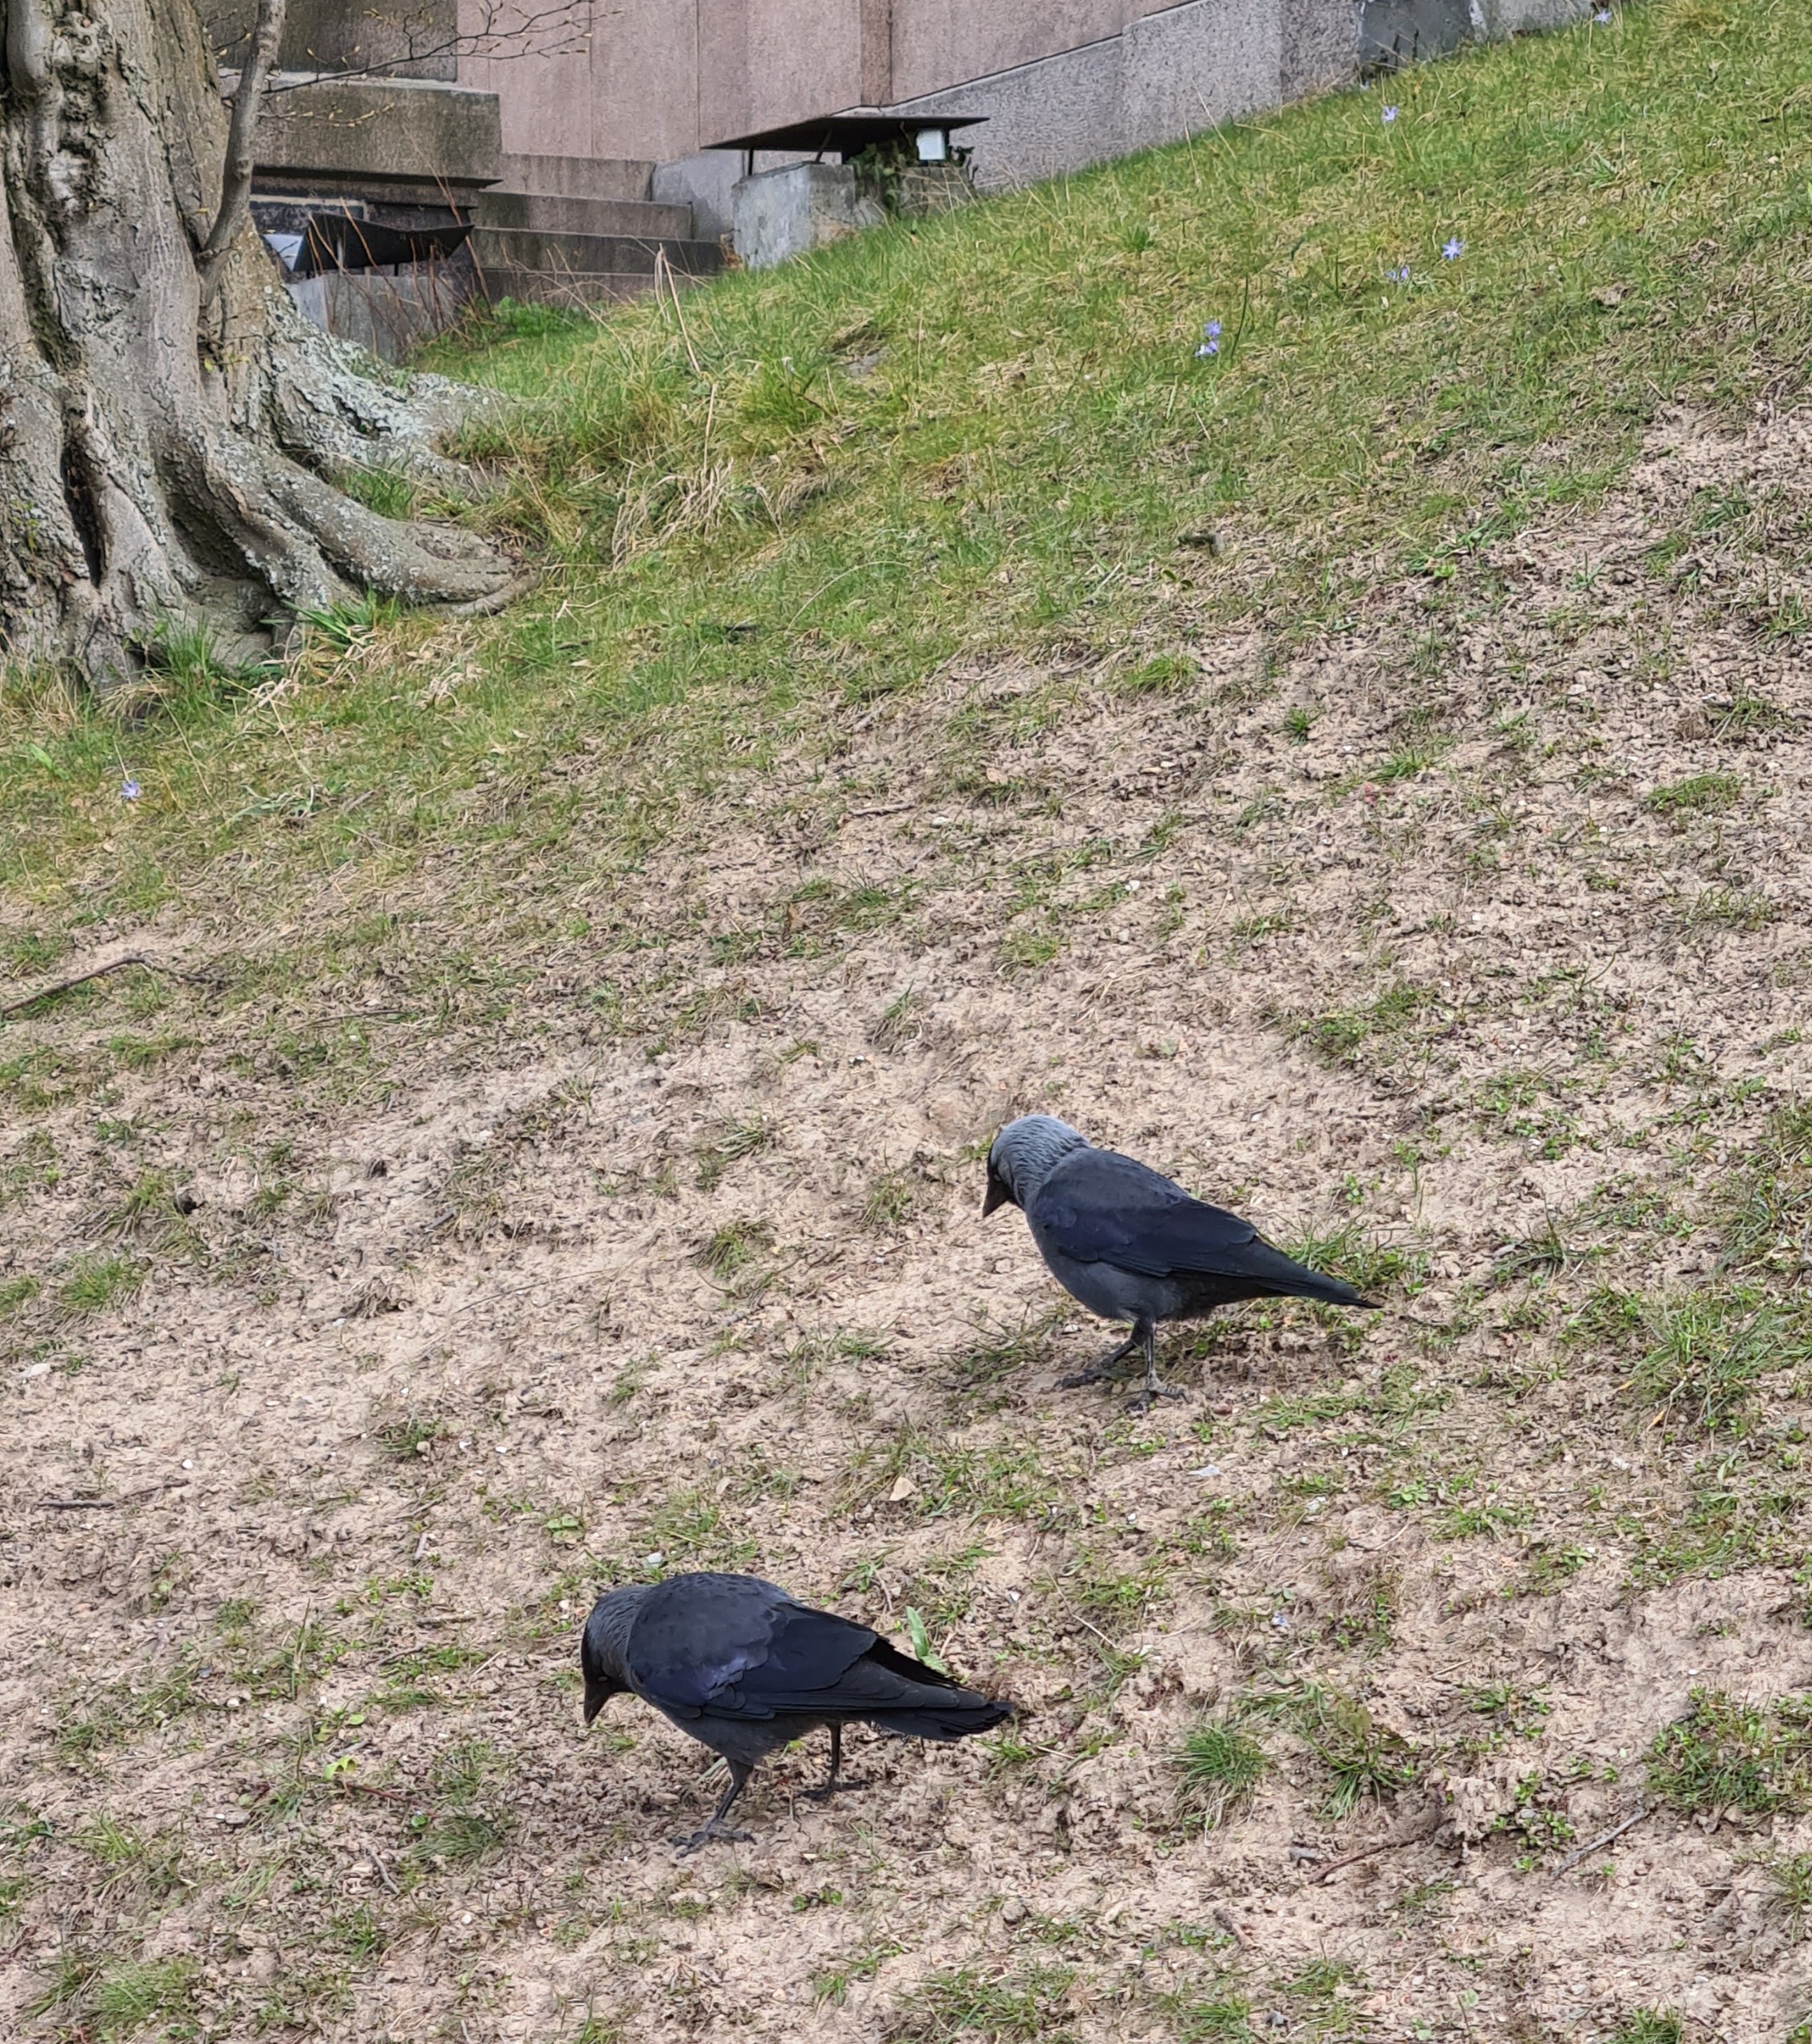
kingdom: Animalia
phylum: Chordata
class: Aves
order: Passeriformes
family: Corvidae
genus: Coloeus
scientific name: Coloeus monedula
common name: Allike
